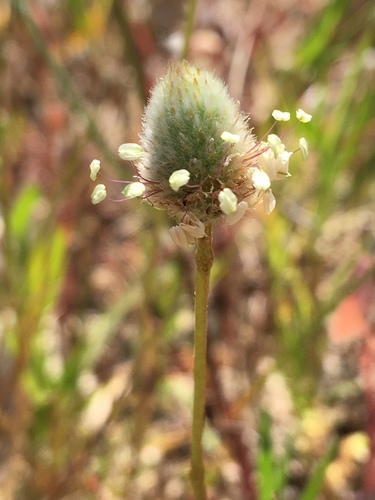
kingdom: Plantae
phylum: Tracheophyta
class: Magnoliopsida
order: Lamiales
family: Plantaginaceae
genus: Plantago
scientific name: Plantago lagopus
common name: Hare-foot plantain
